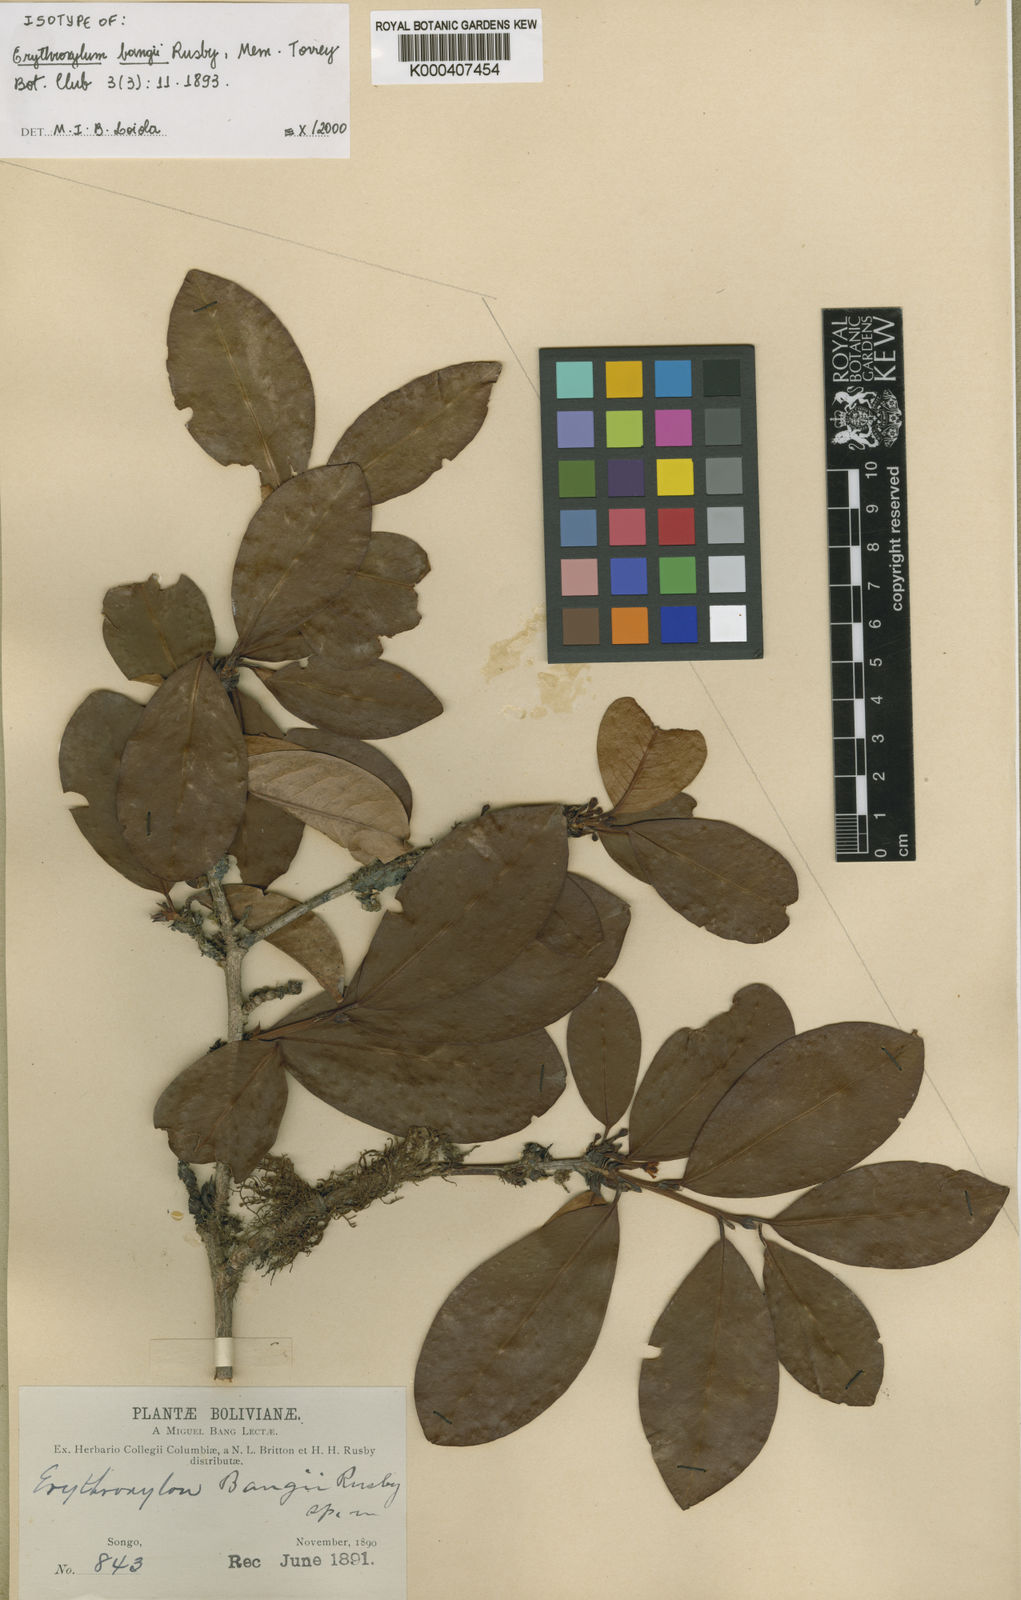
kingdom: Plantae
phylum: Tracheophyta
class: Magnoliopsida
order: Malpighiales
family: Erythroxylaceae
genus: Erythroxylum
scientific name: Erythroxylum bangii
